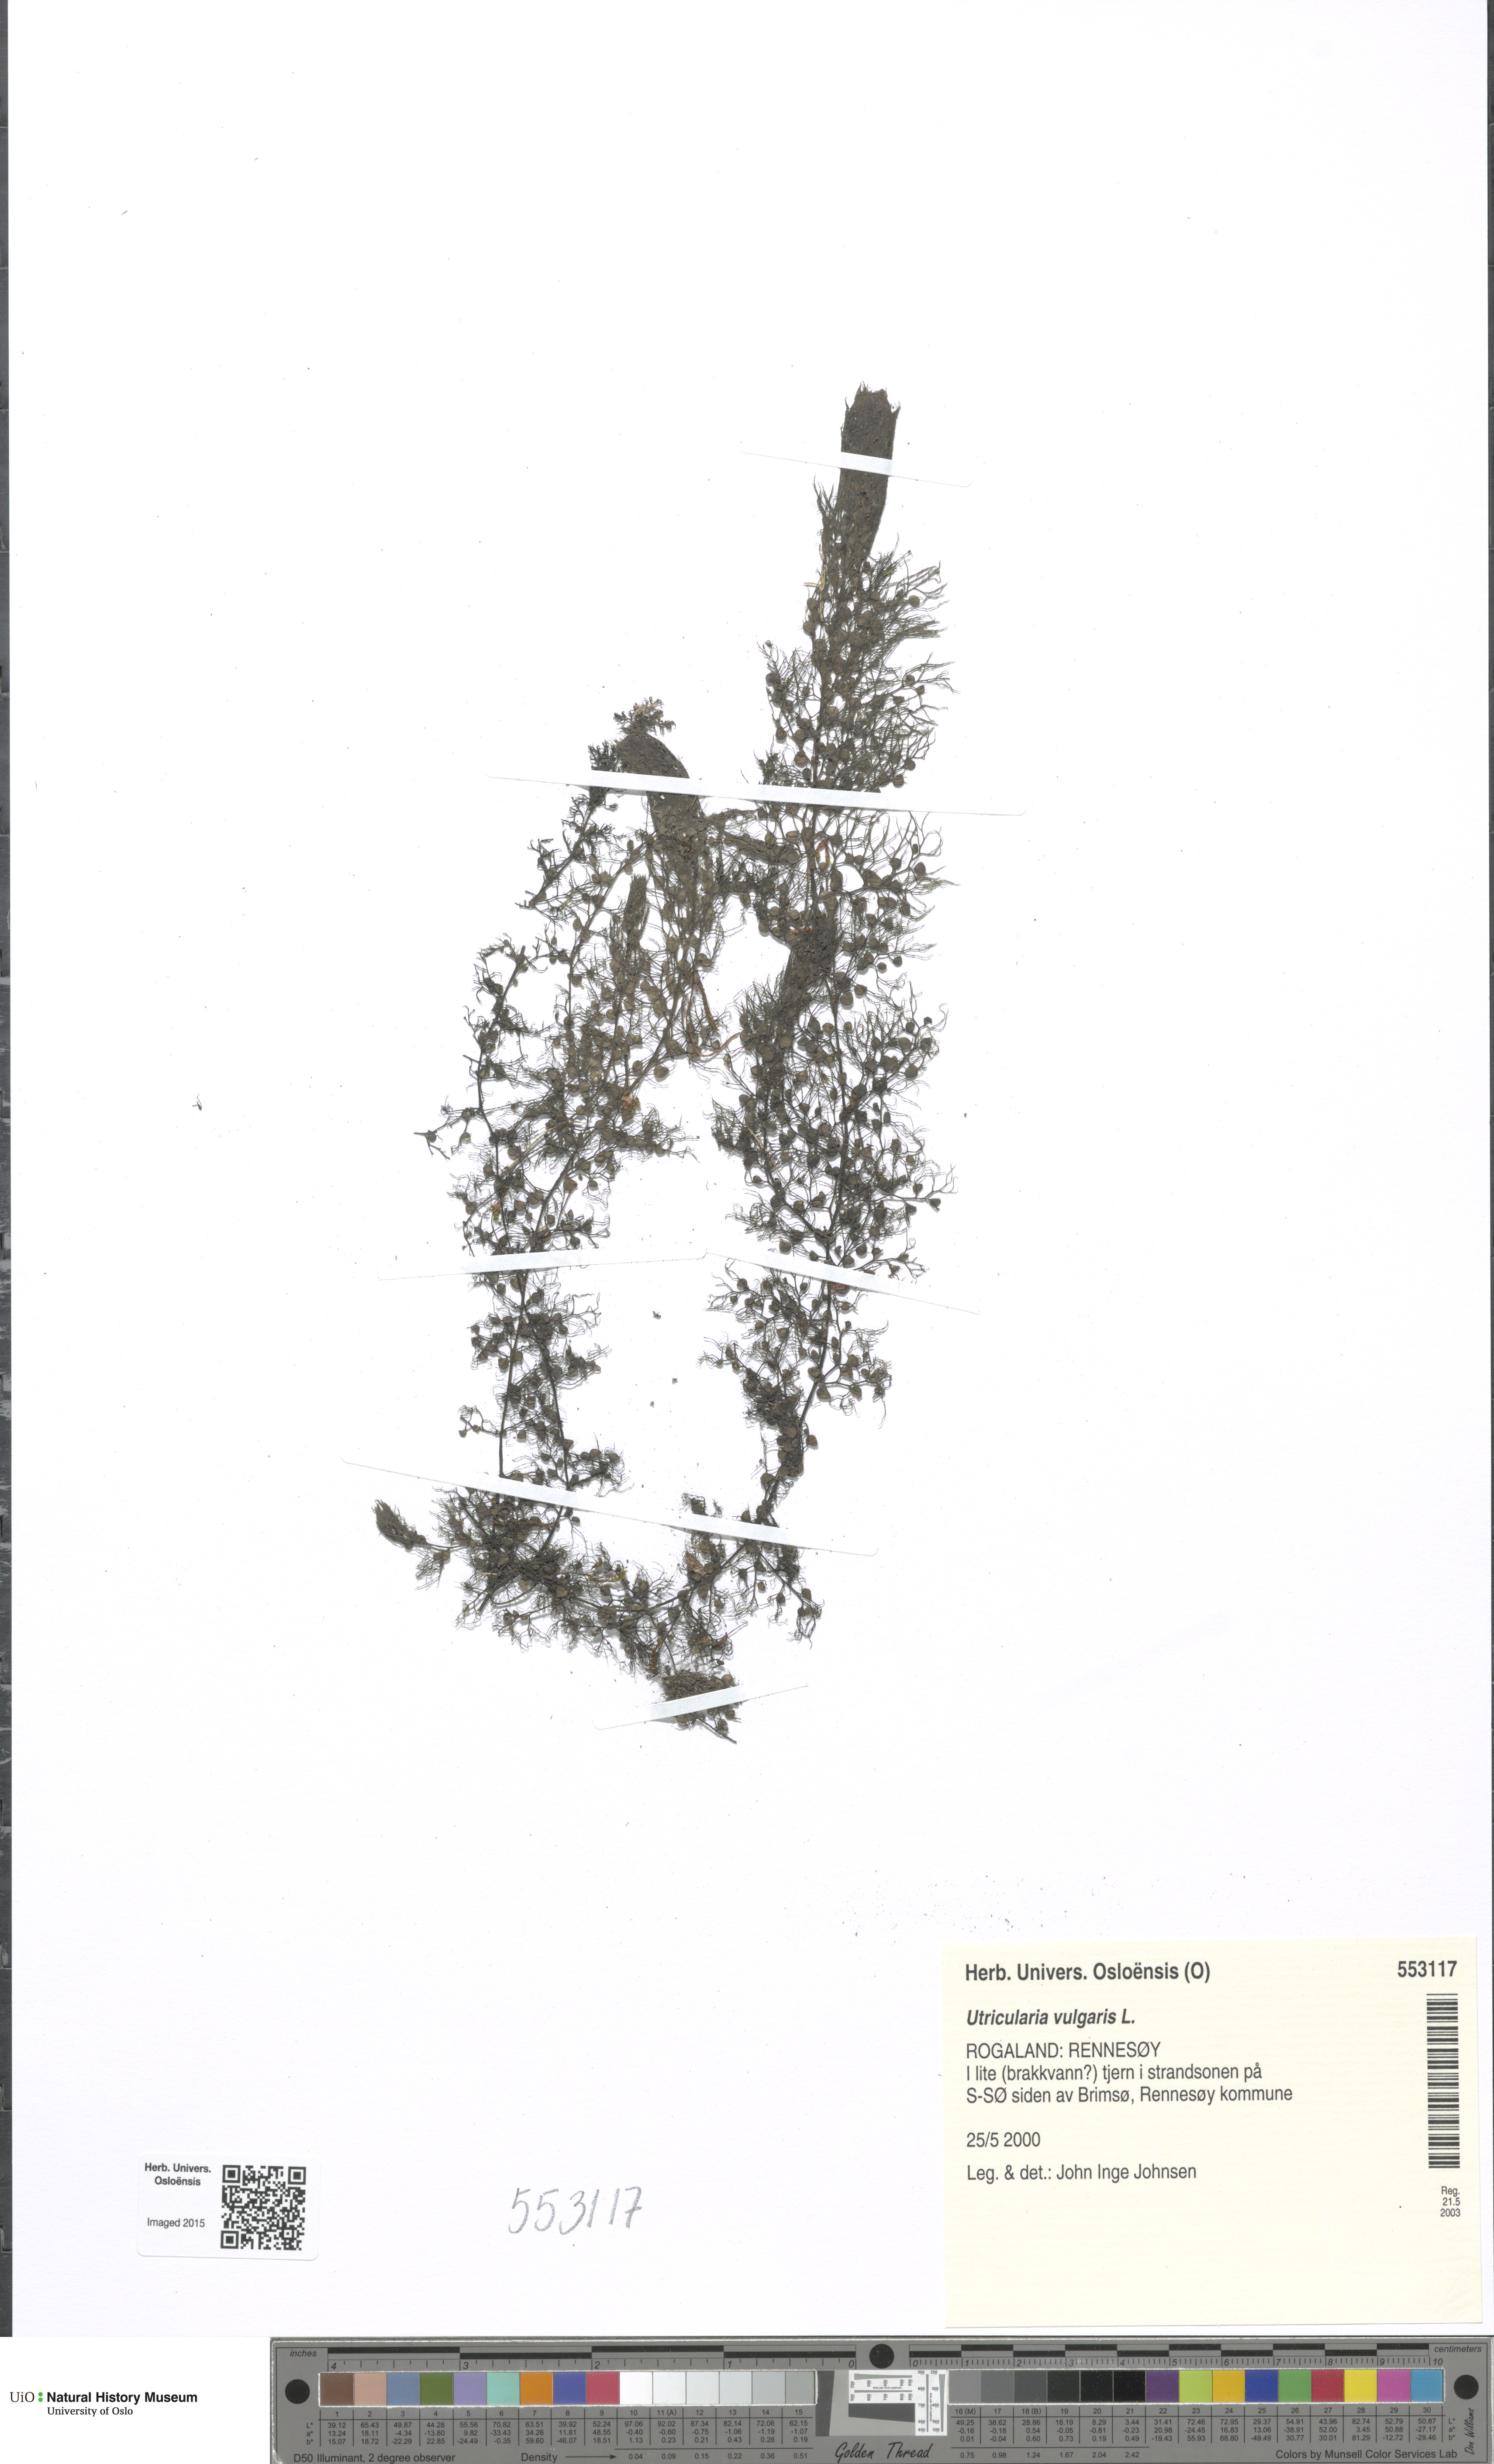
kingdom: Plantae
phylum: Tracheophyta
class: Magnoliopsida
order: Lamiales
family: Lentibulariaceae
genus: Utricularia
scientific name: Utricularia vulgaris
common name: Greater bladderwort
